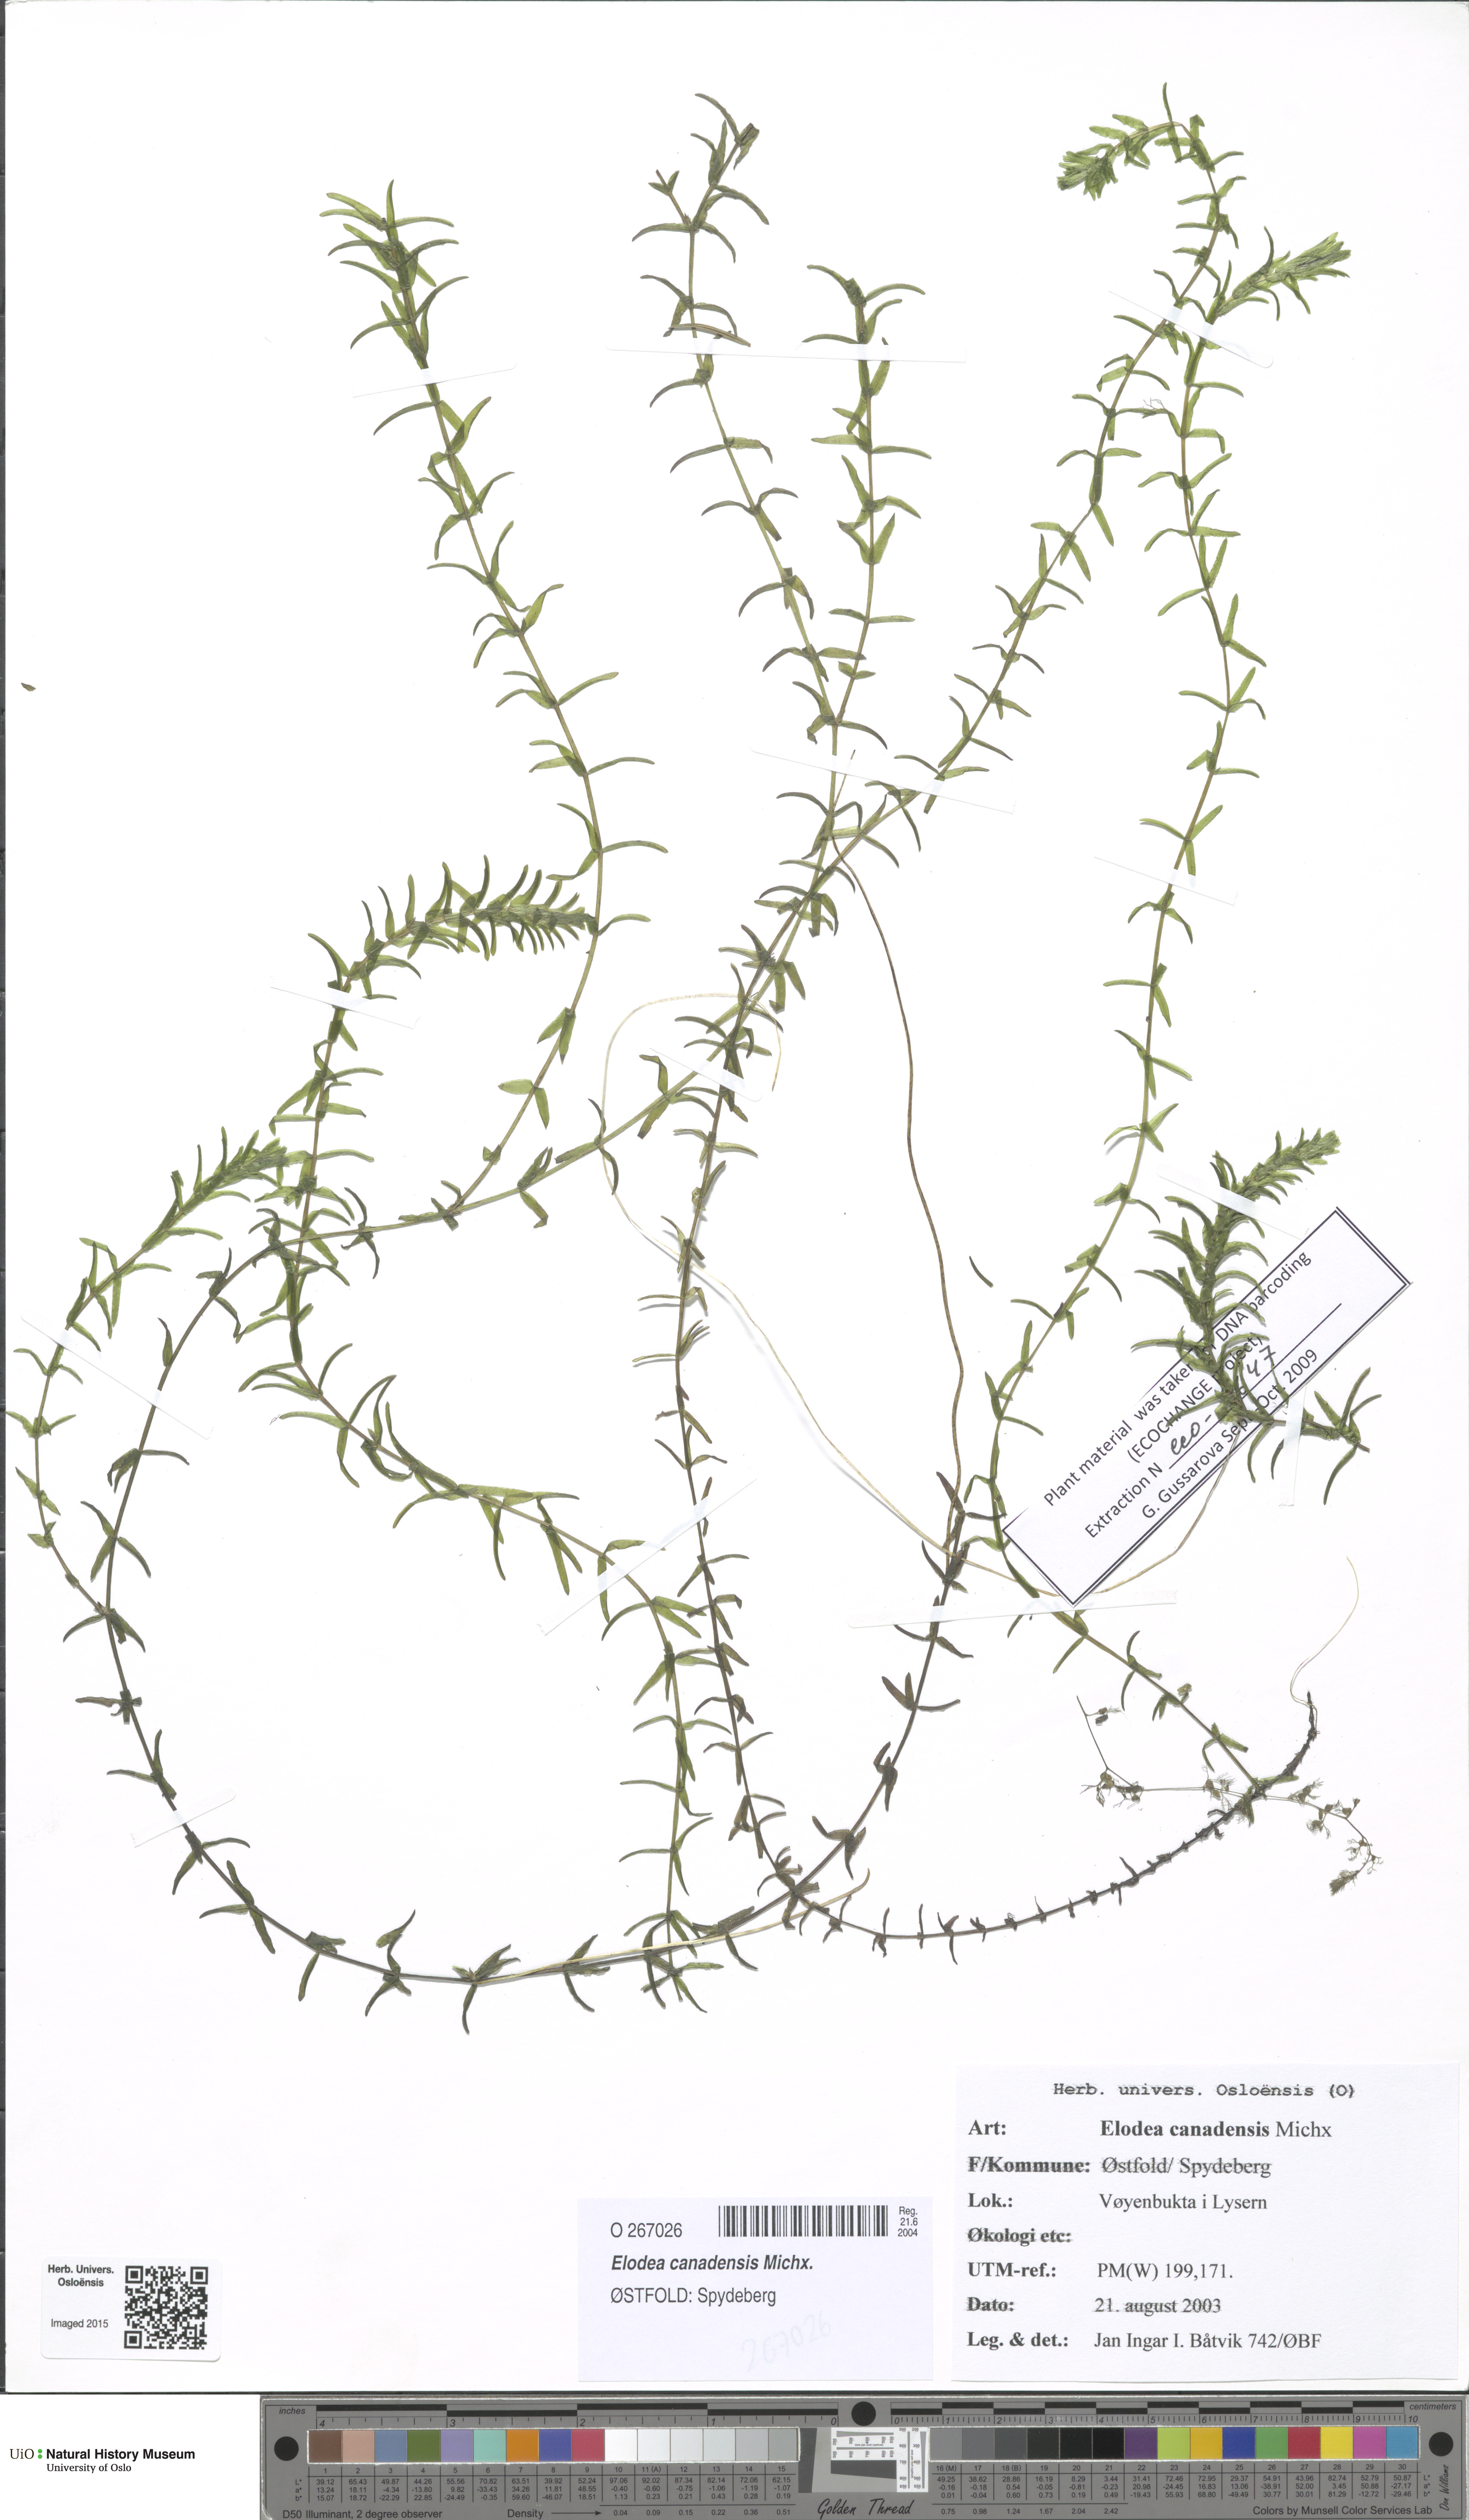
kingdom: Plantae
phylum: Tracheophyta
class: Liliopsida
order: Alismatales
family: Hydrocharitaceae
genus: Elodea
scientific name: Elodea canadensis
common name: Canadian waterweed
